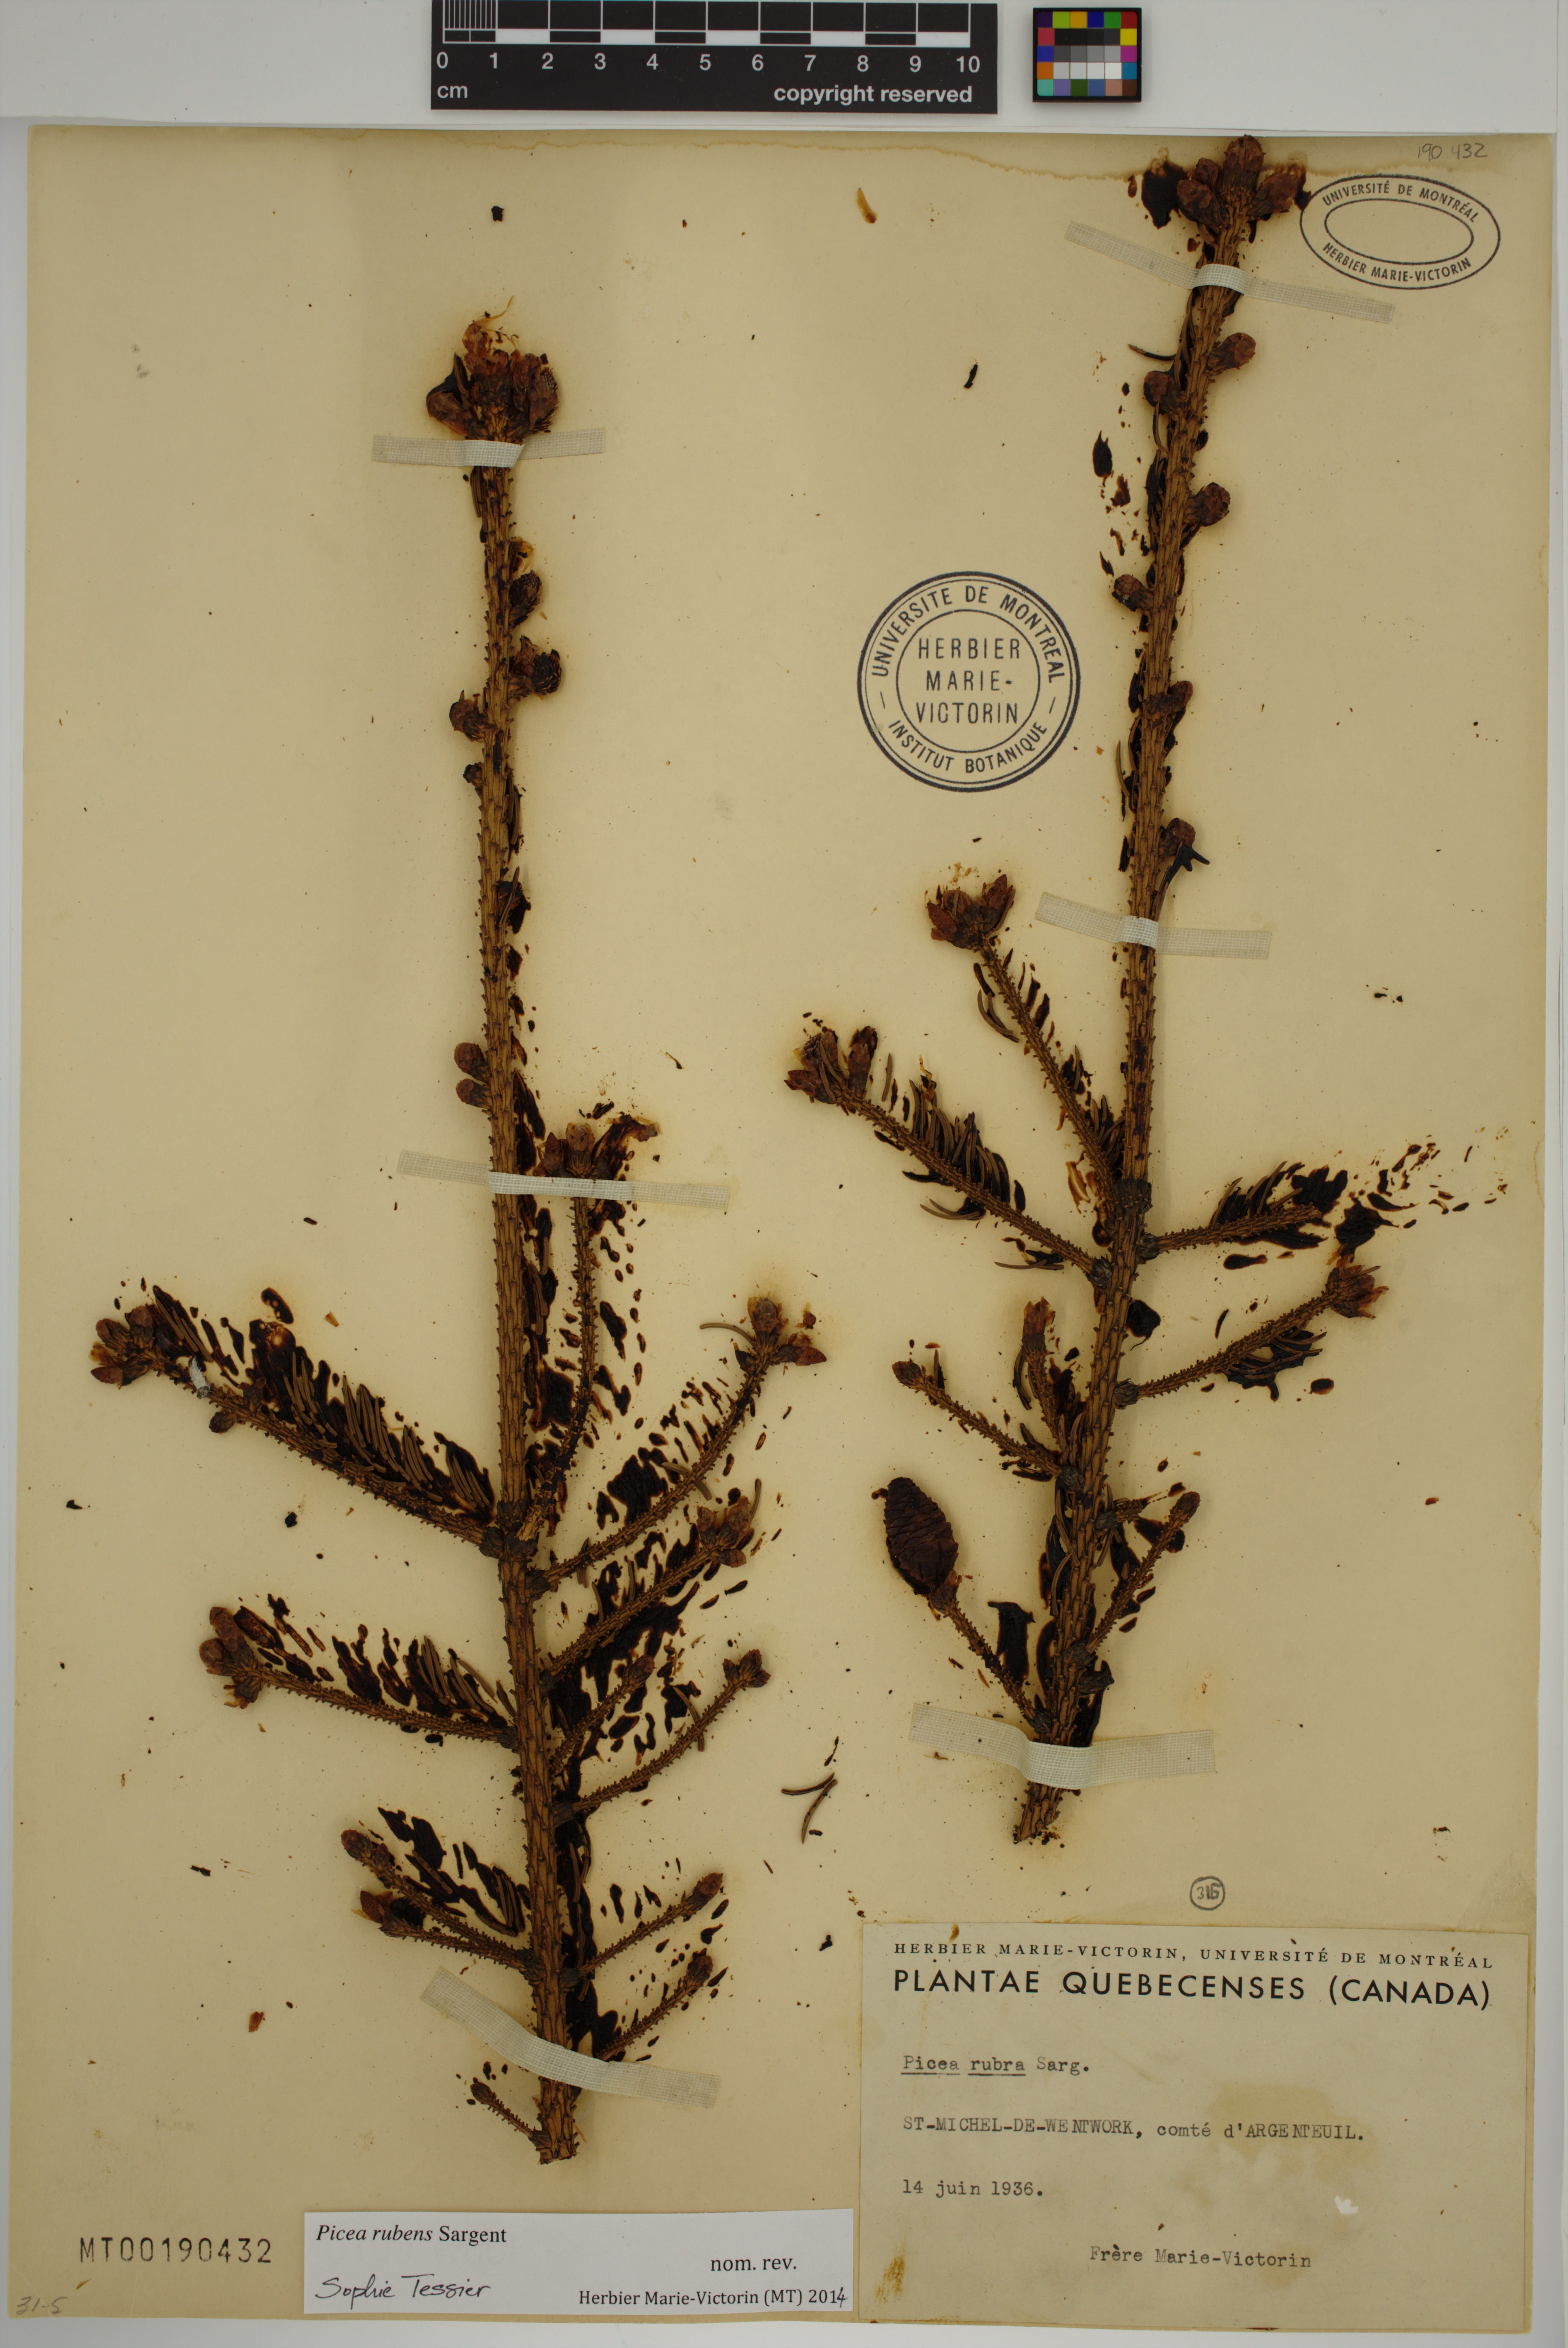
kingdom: Plantae
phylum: Tracheophyta
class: Pinopsida
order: Pinales
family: Pinaceae
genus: Picea
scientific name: Picea rubens
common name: Red spruce
